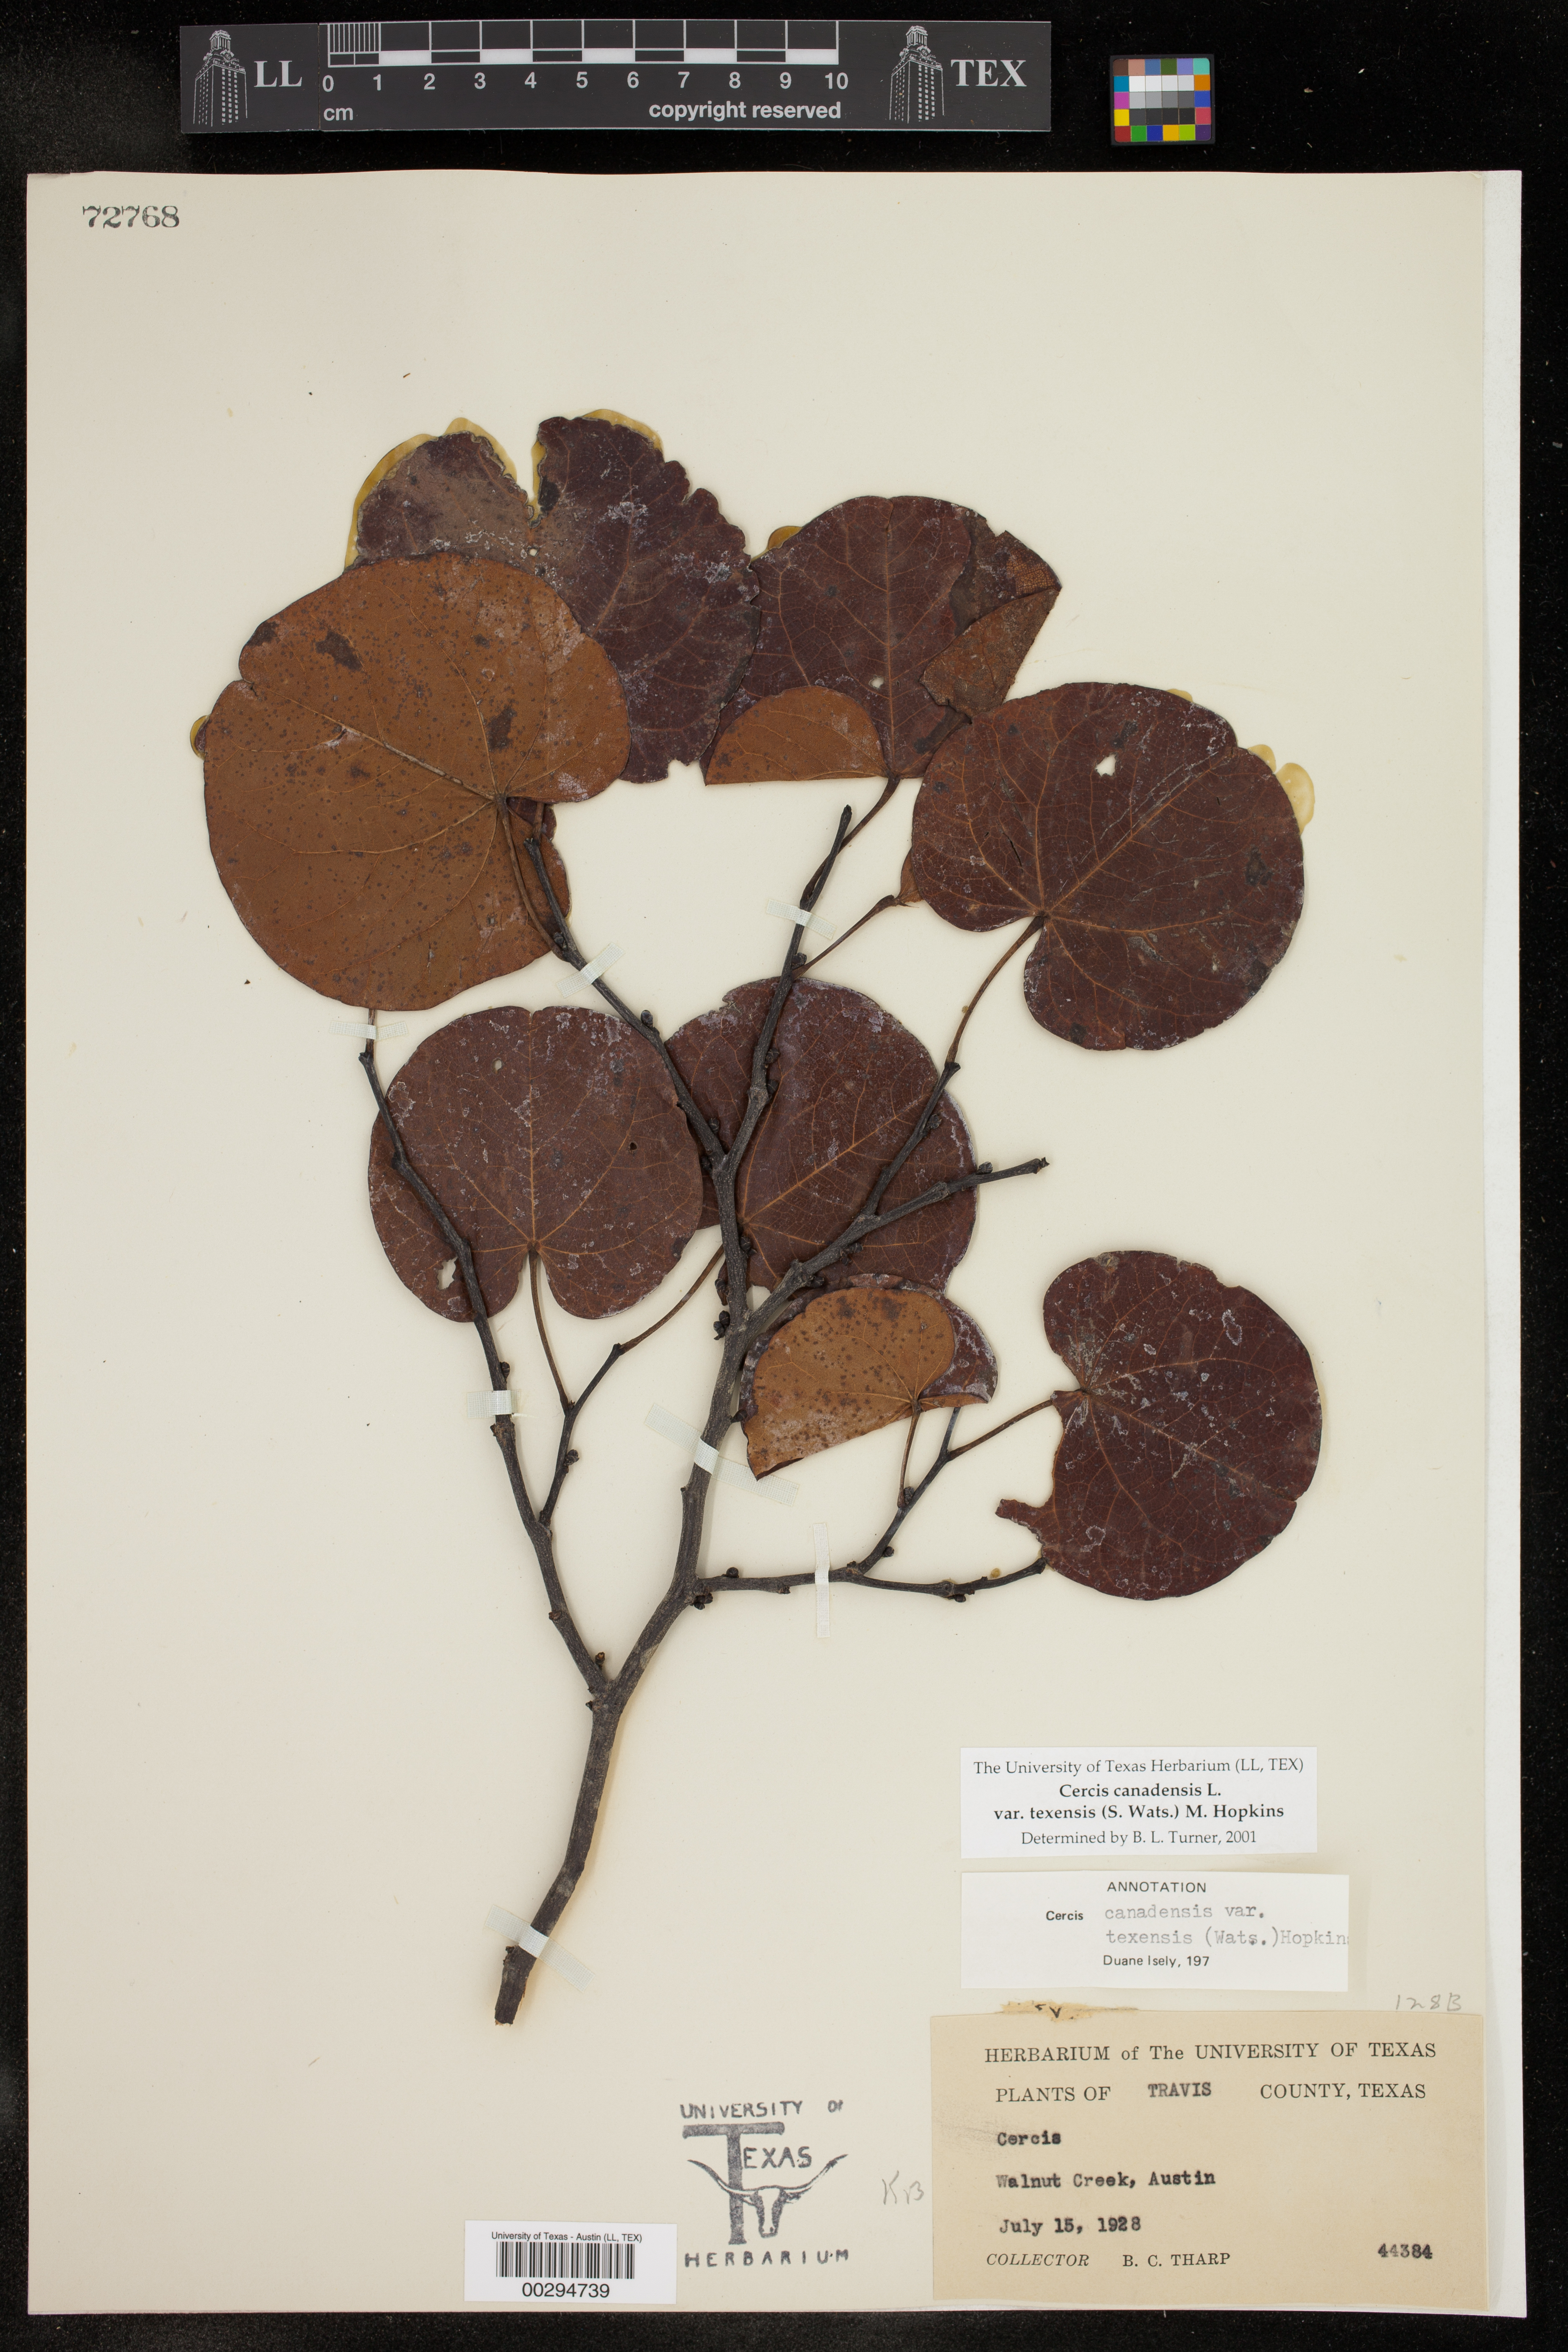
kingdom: Plantae
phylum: Tracheophyta
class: Magnoliopsida
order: Fabales
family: Fabaceae
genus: Cercis
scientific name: Cercis canadensis
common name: Eastern redbud
